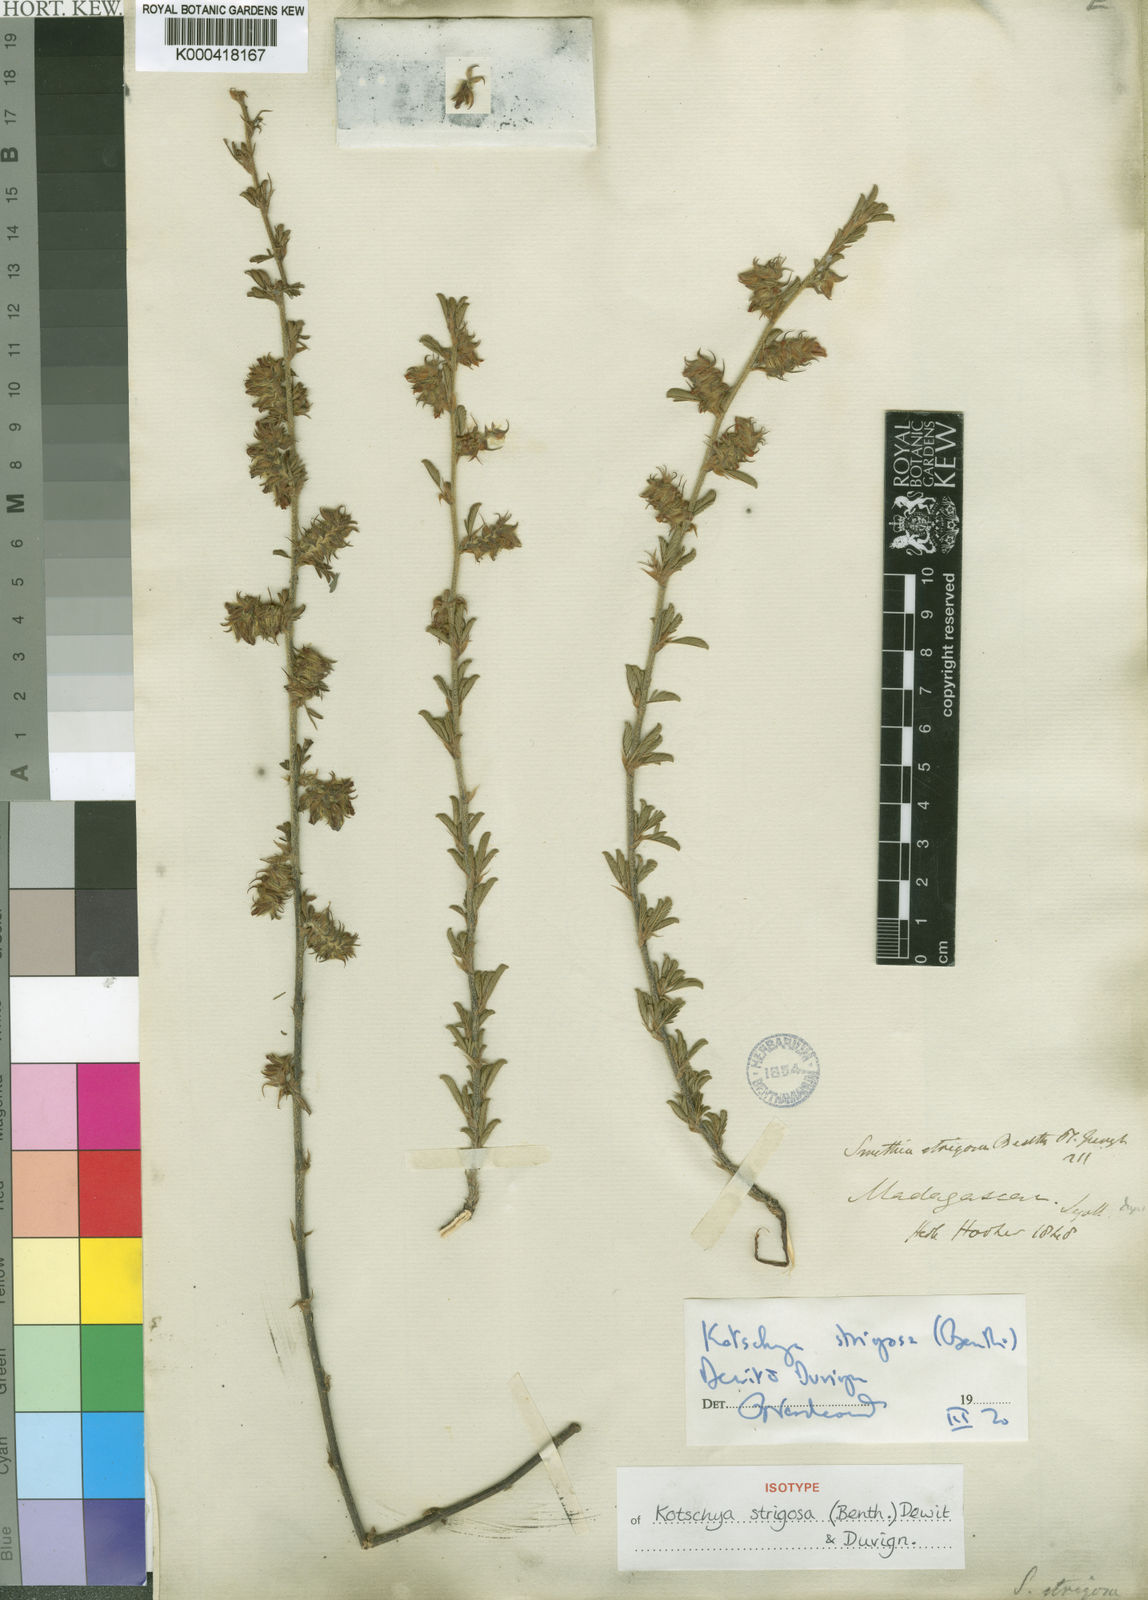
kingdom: Plantae
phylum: Tracheophyta
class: Magnoliopsida
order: Fabales
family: Fabaceae
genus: Kotschya
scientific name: Kotschya strigosa
